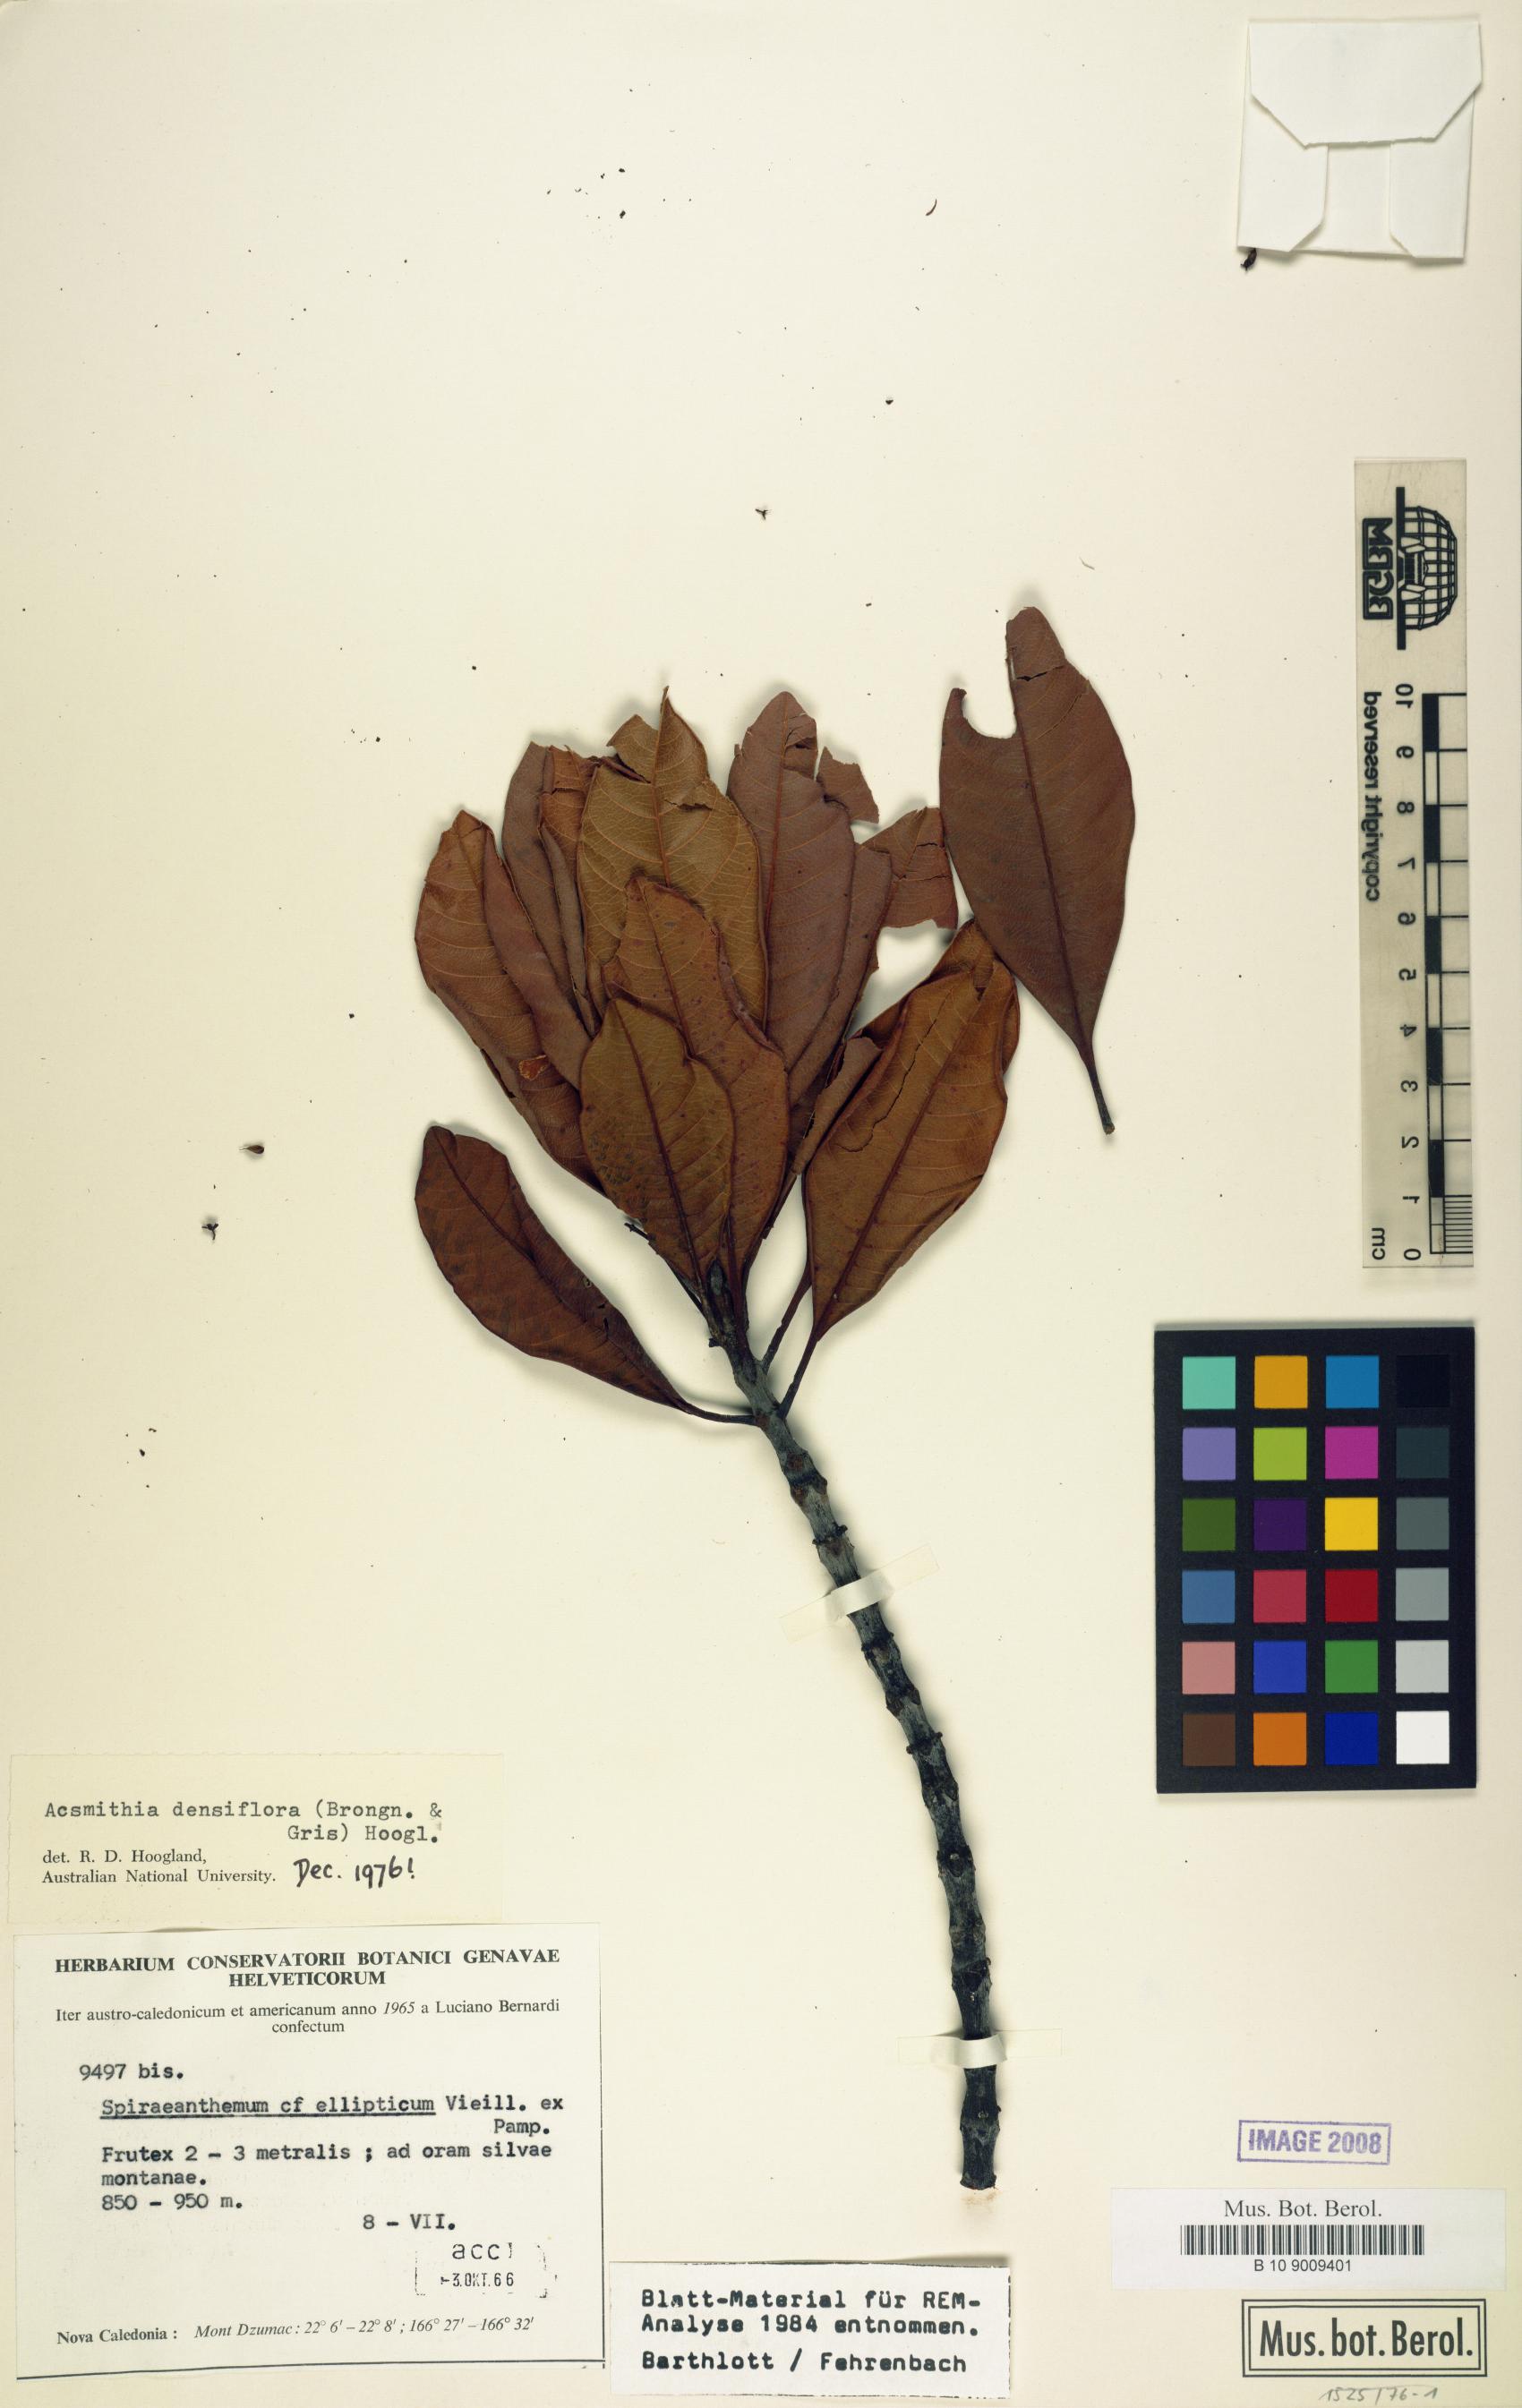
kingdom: Plantae
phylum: Tracheophyta
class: Magnoliopsida
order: Oxalidales
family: Cunoniaceae
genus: Spiraeanthemum
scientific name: Spiraeanthemum densiflorum
